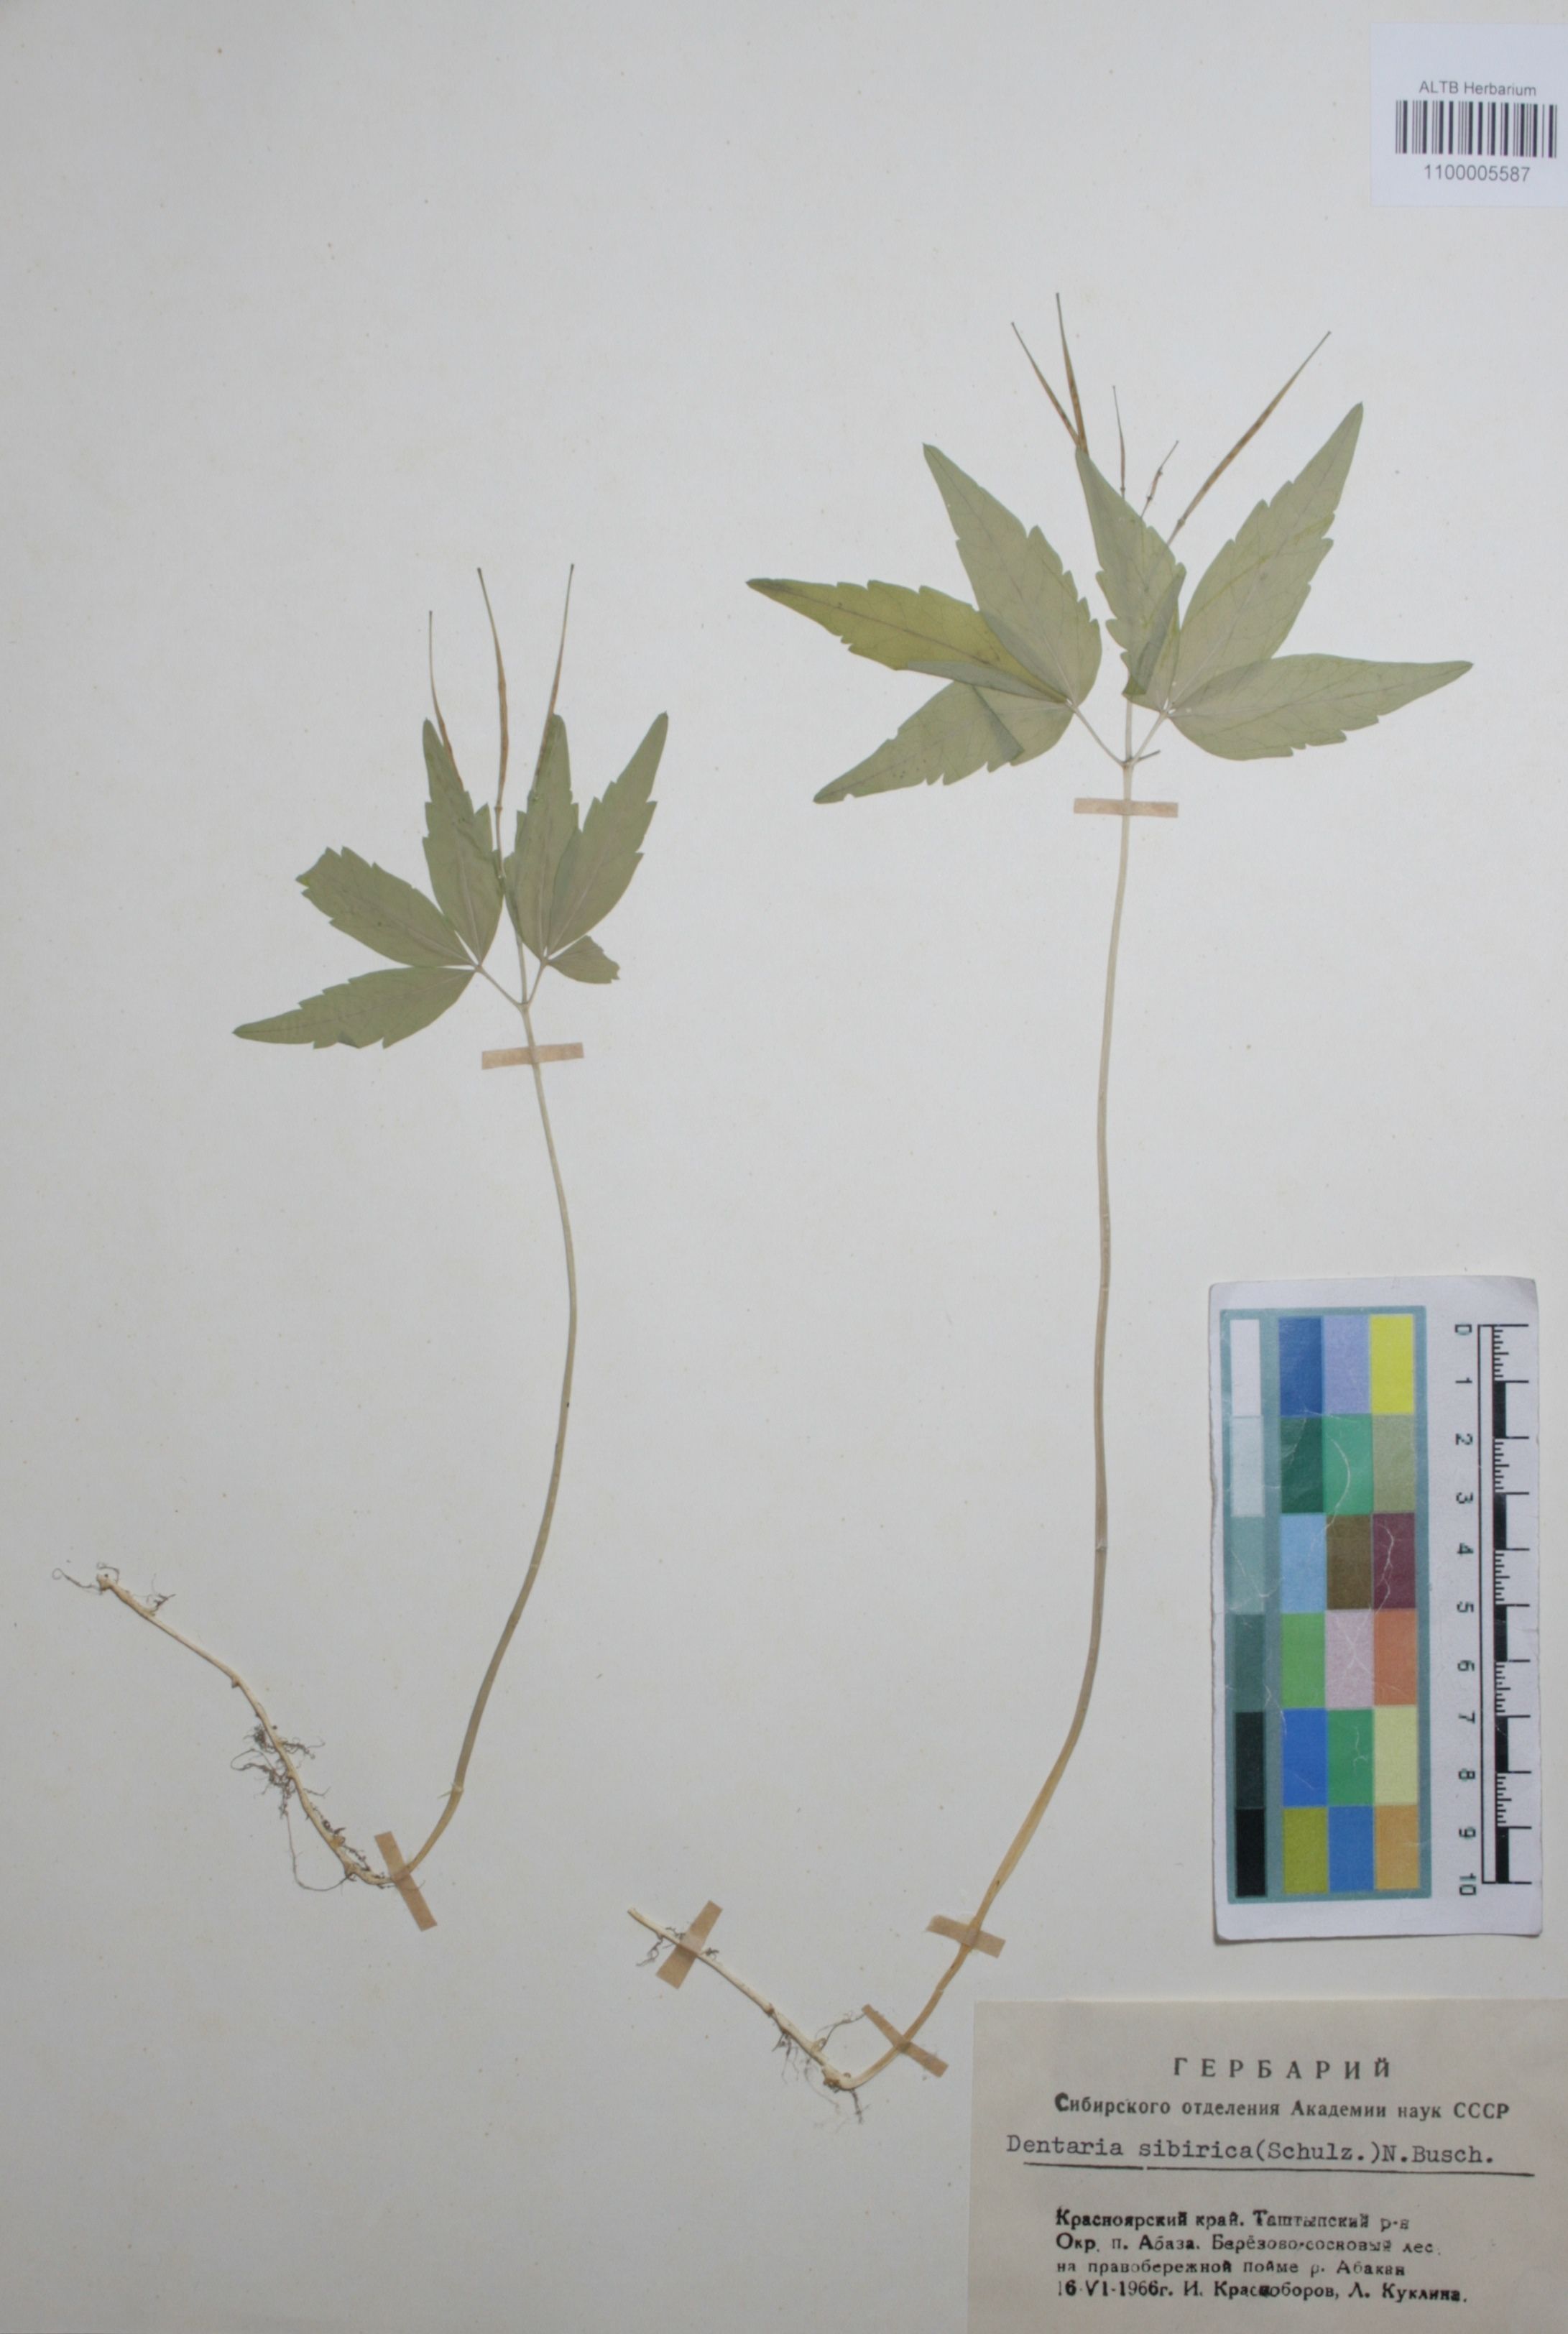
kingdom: Plantae
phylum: Tracheophyta
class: Magnoliopsida
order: Brassicales
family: Brassicaceae
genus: Cardamine
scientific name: Cardamine glanduligera
